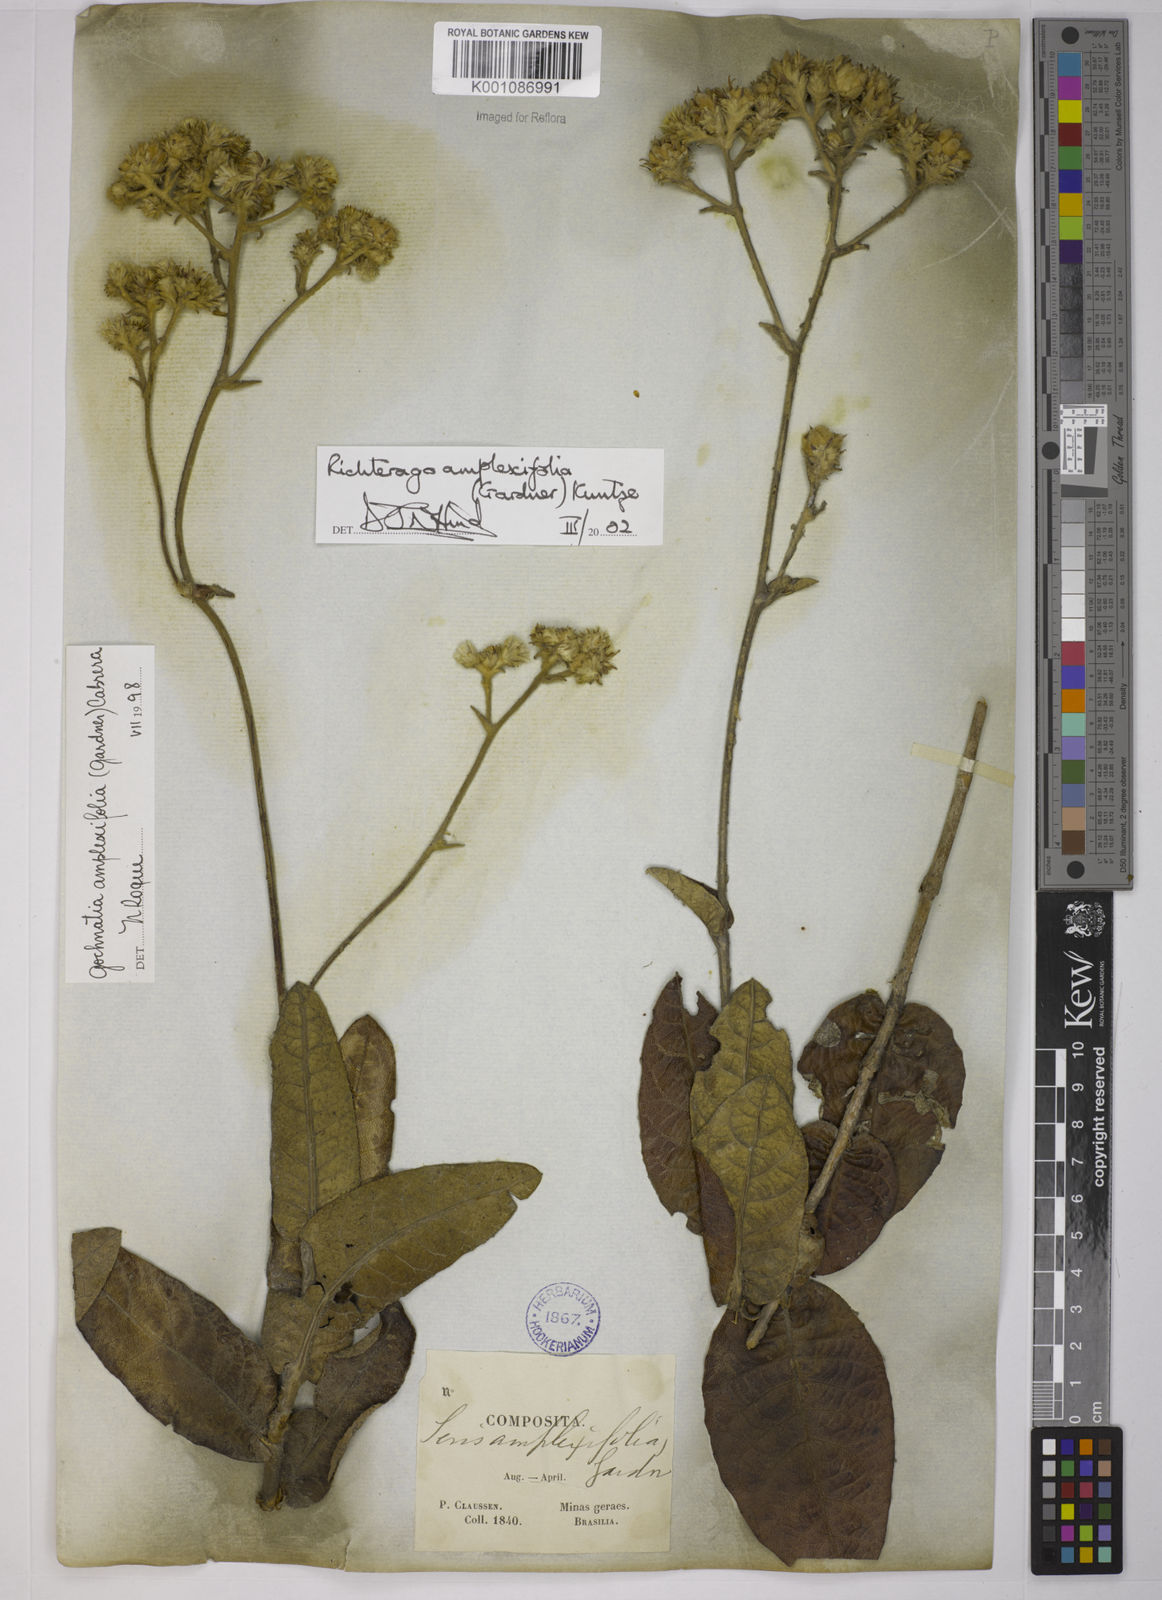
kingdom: Plantae
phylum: Tracheophyta
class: Magnoliopsida
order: Asterales
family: Asteraceae
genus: Richterago
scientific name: Richterago amplexifolia
